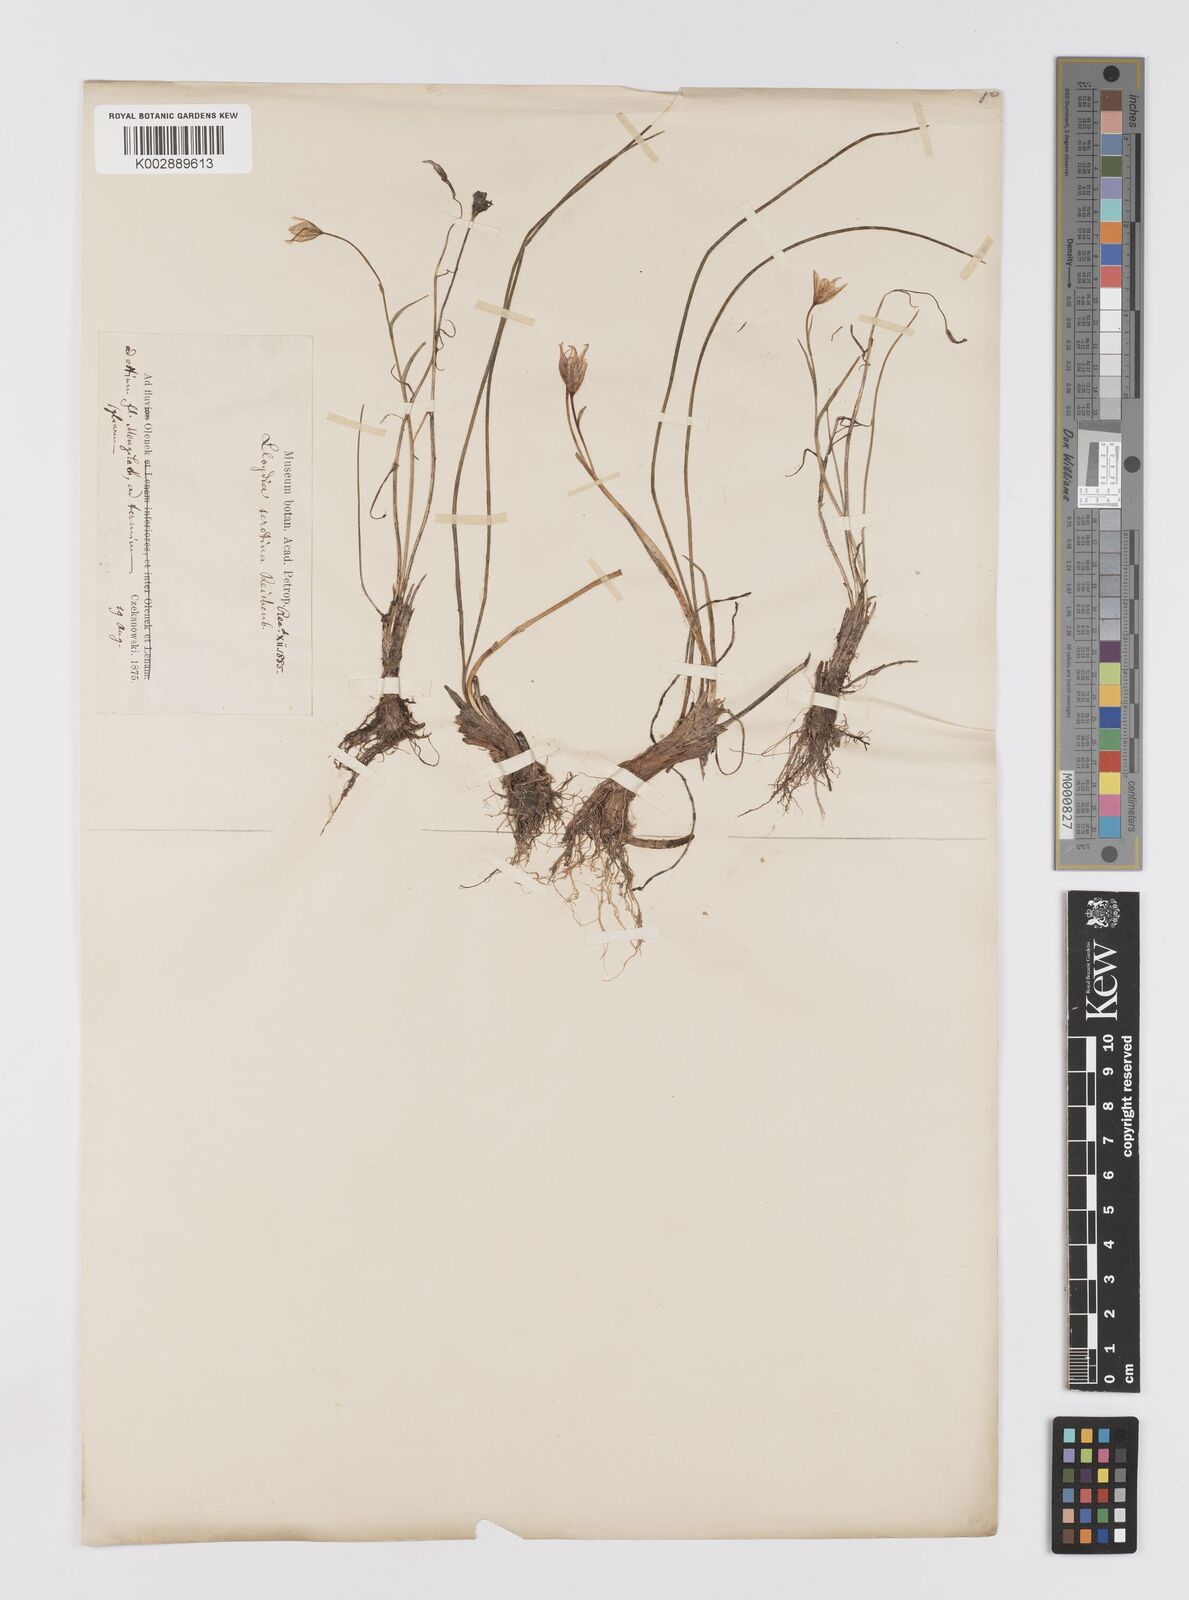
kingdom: Plantae
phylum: Tracheophyta
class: Liliopsida
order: Liliales
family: Liliaceae
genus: Gagea
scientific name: Gagea serotina
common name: Snowdon lily
